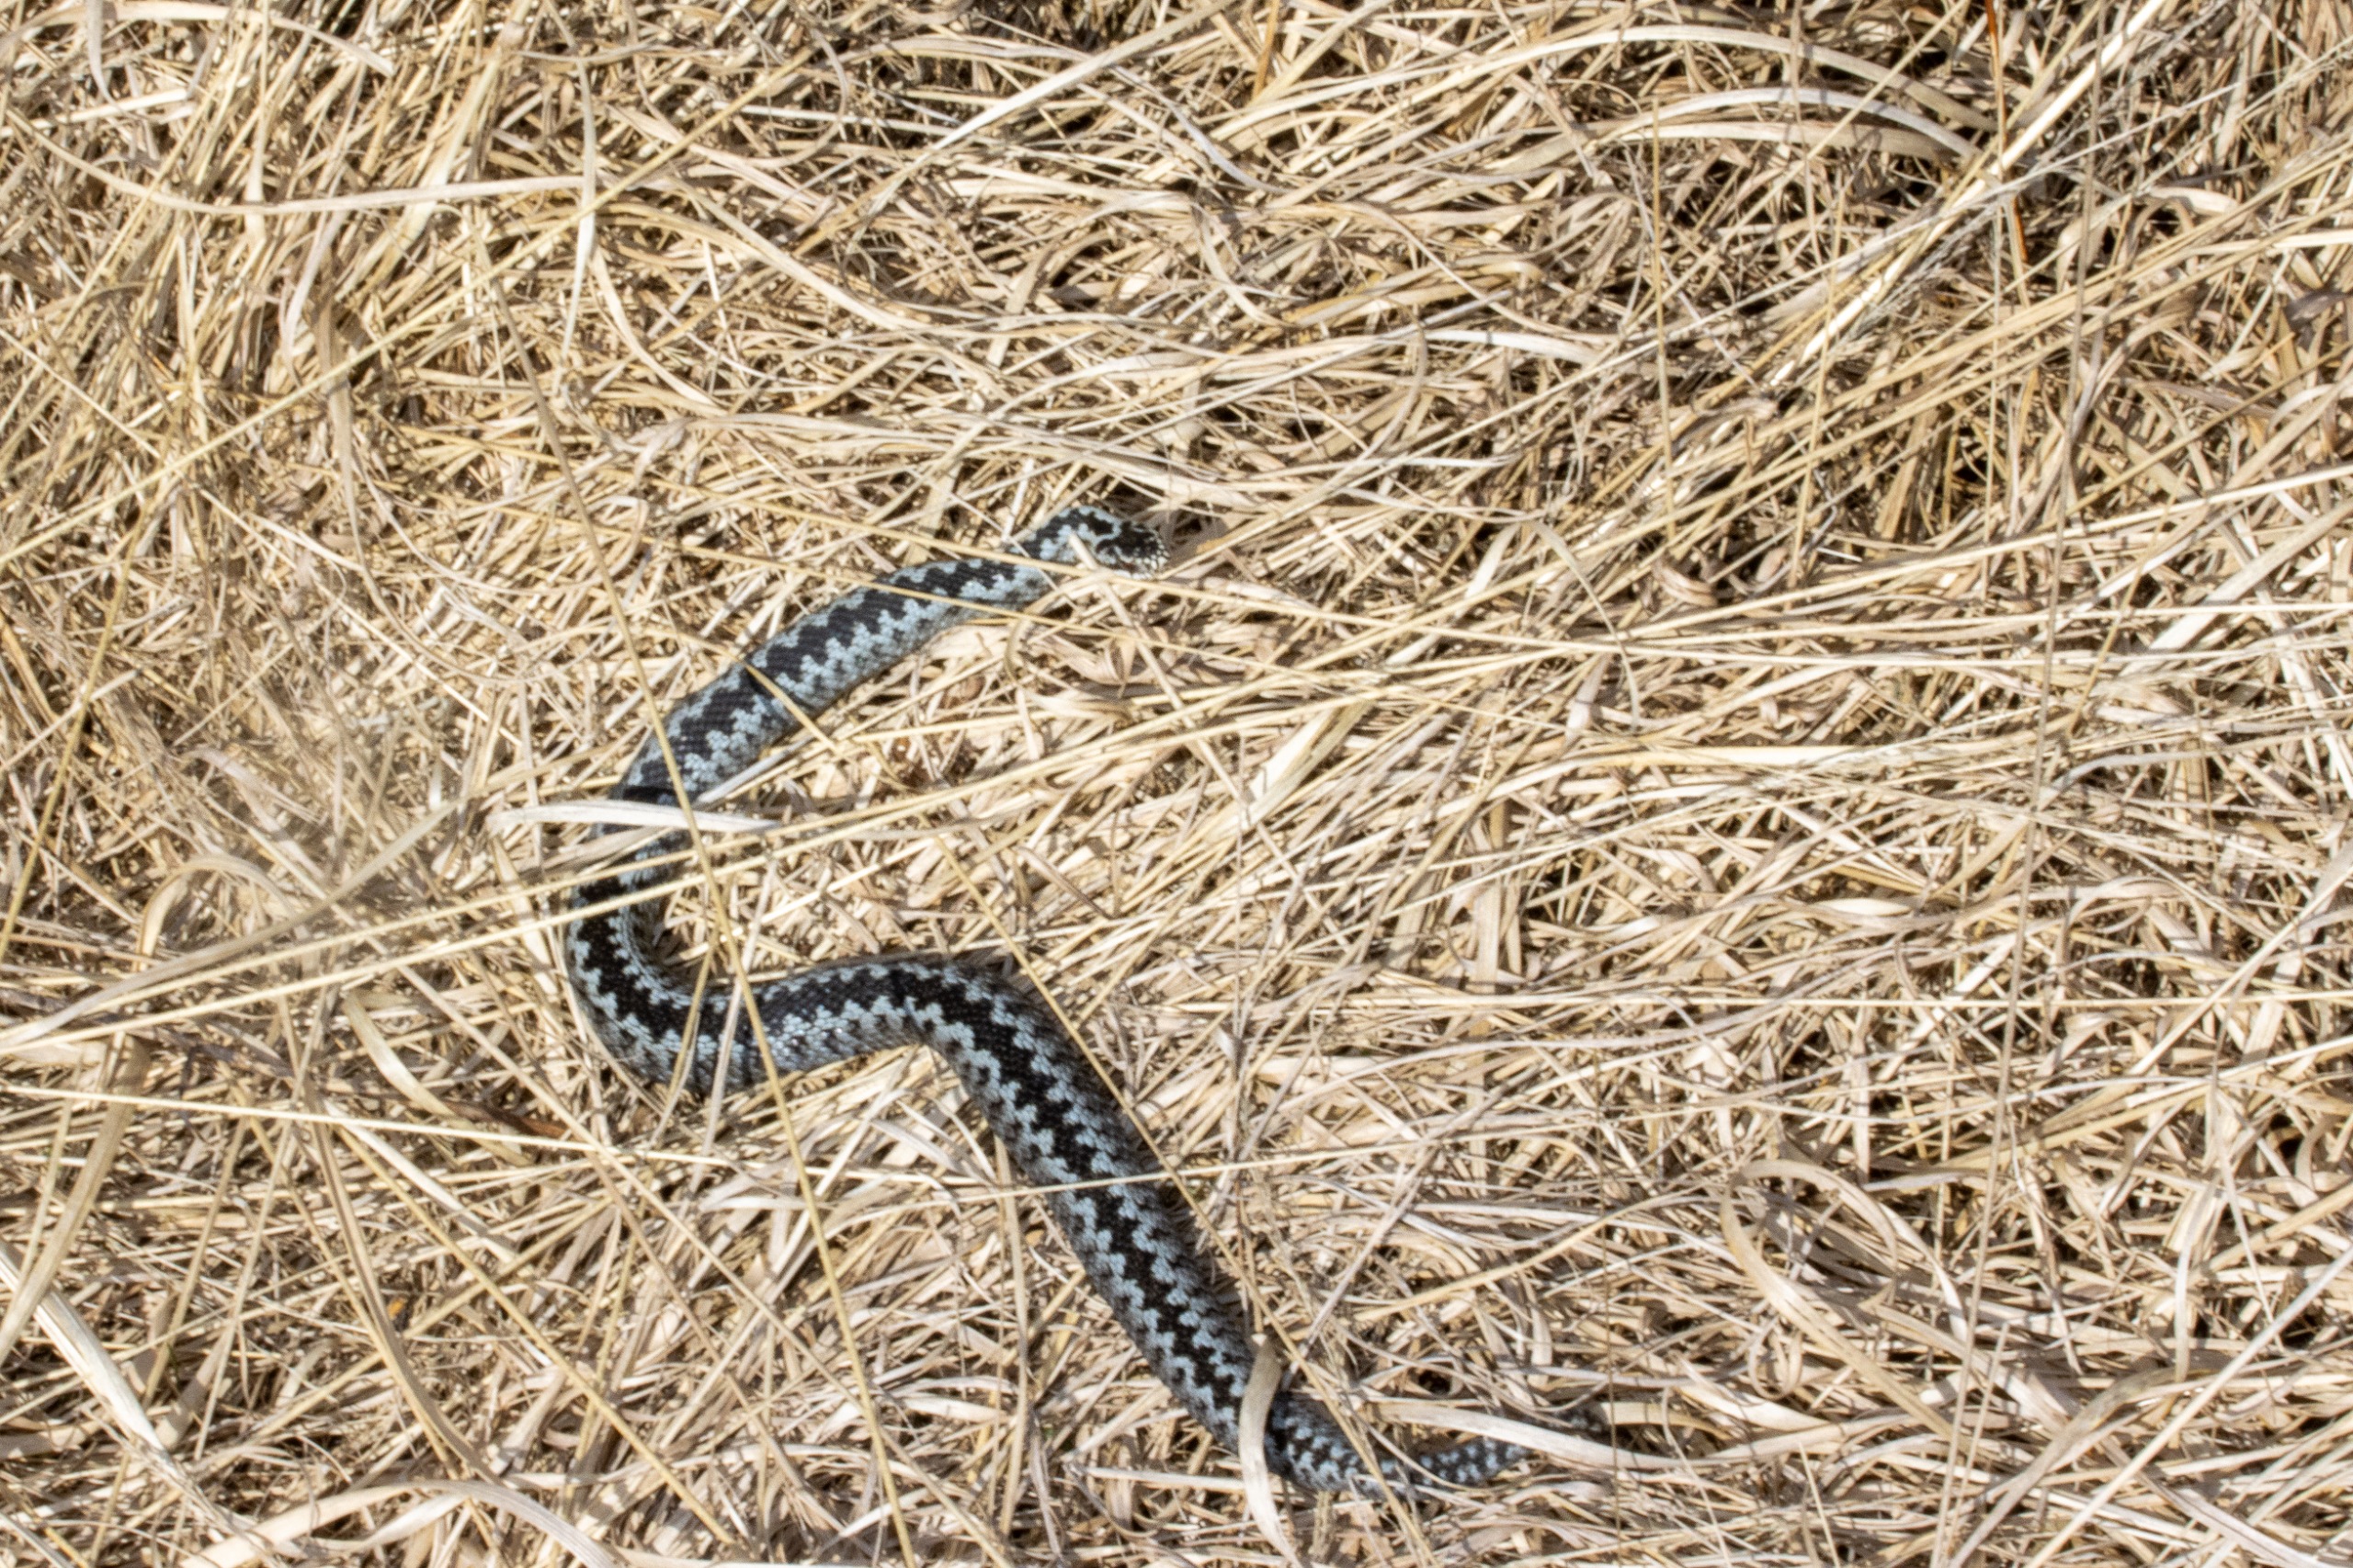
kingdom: Animalia
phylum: Chordata
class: Squamata
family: Viperidae
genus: Vipera
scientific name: Vipera berus
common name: Hugorm
